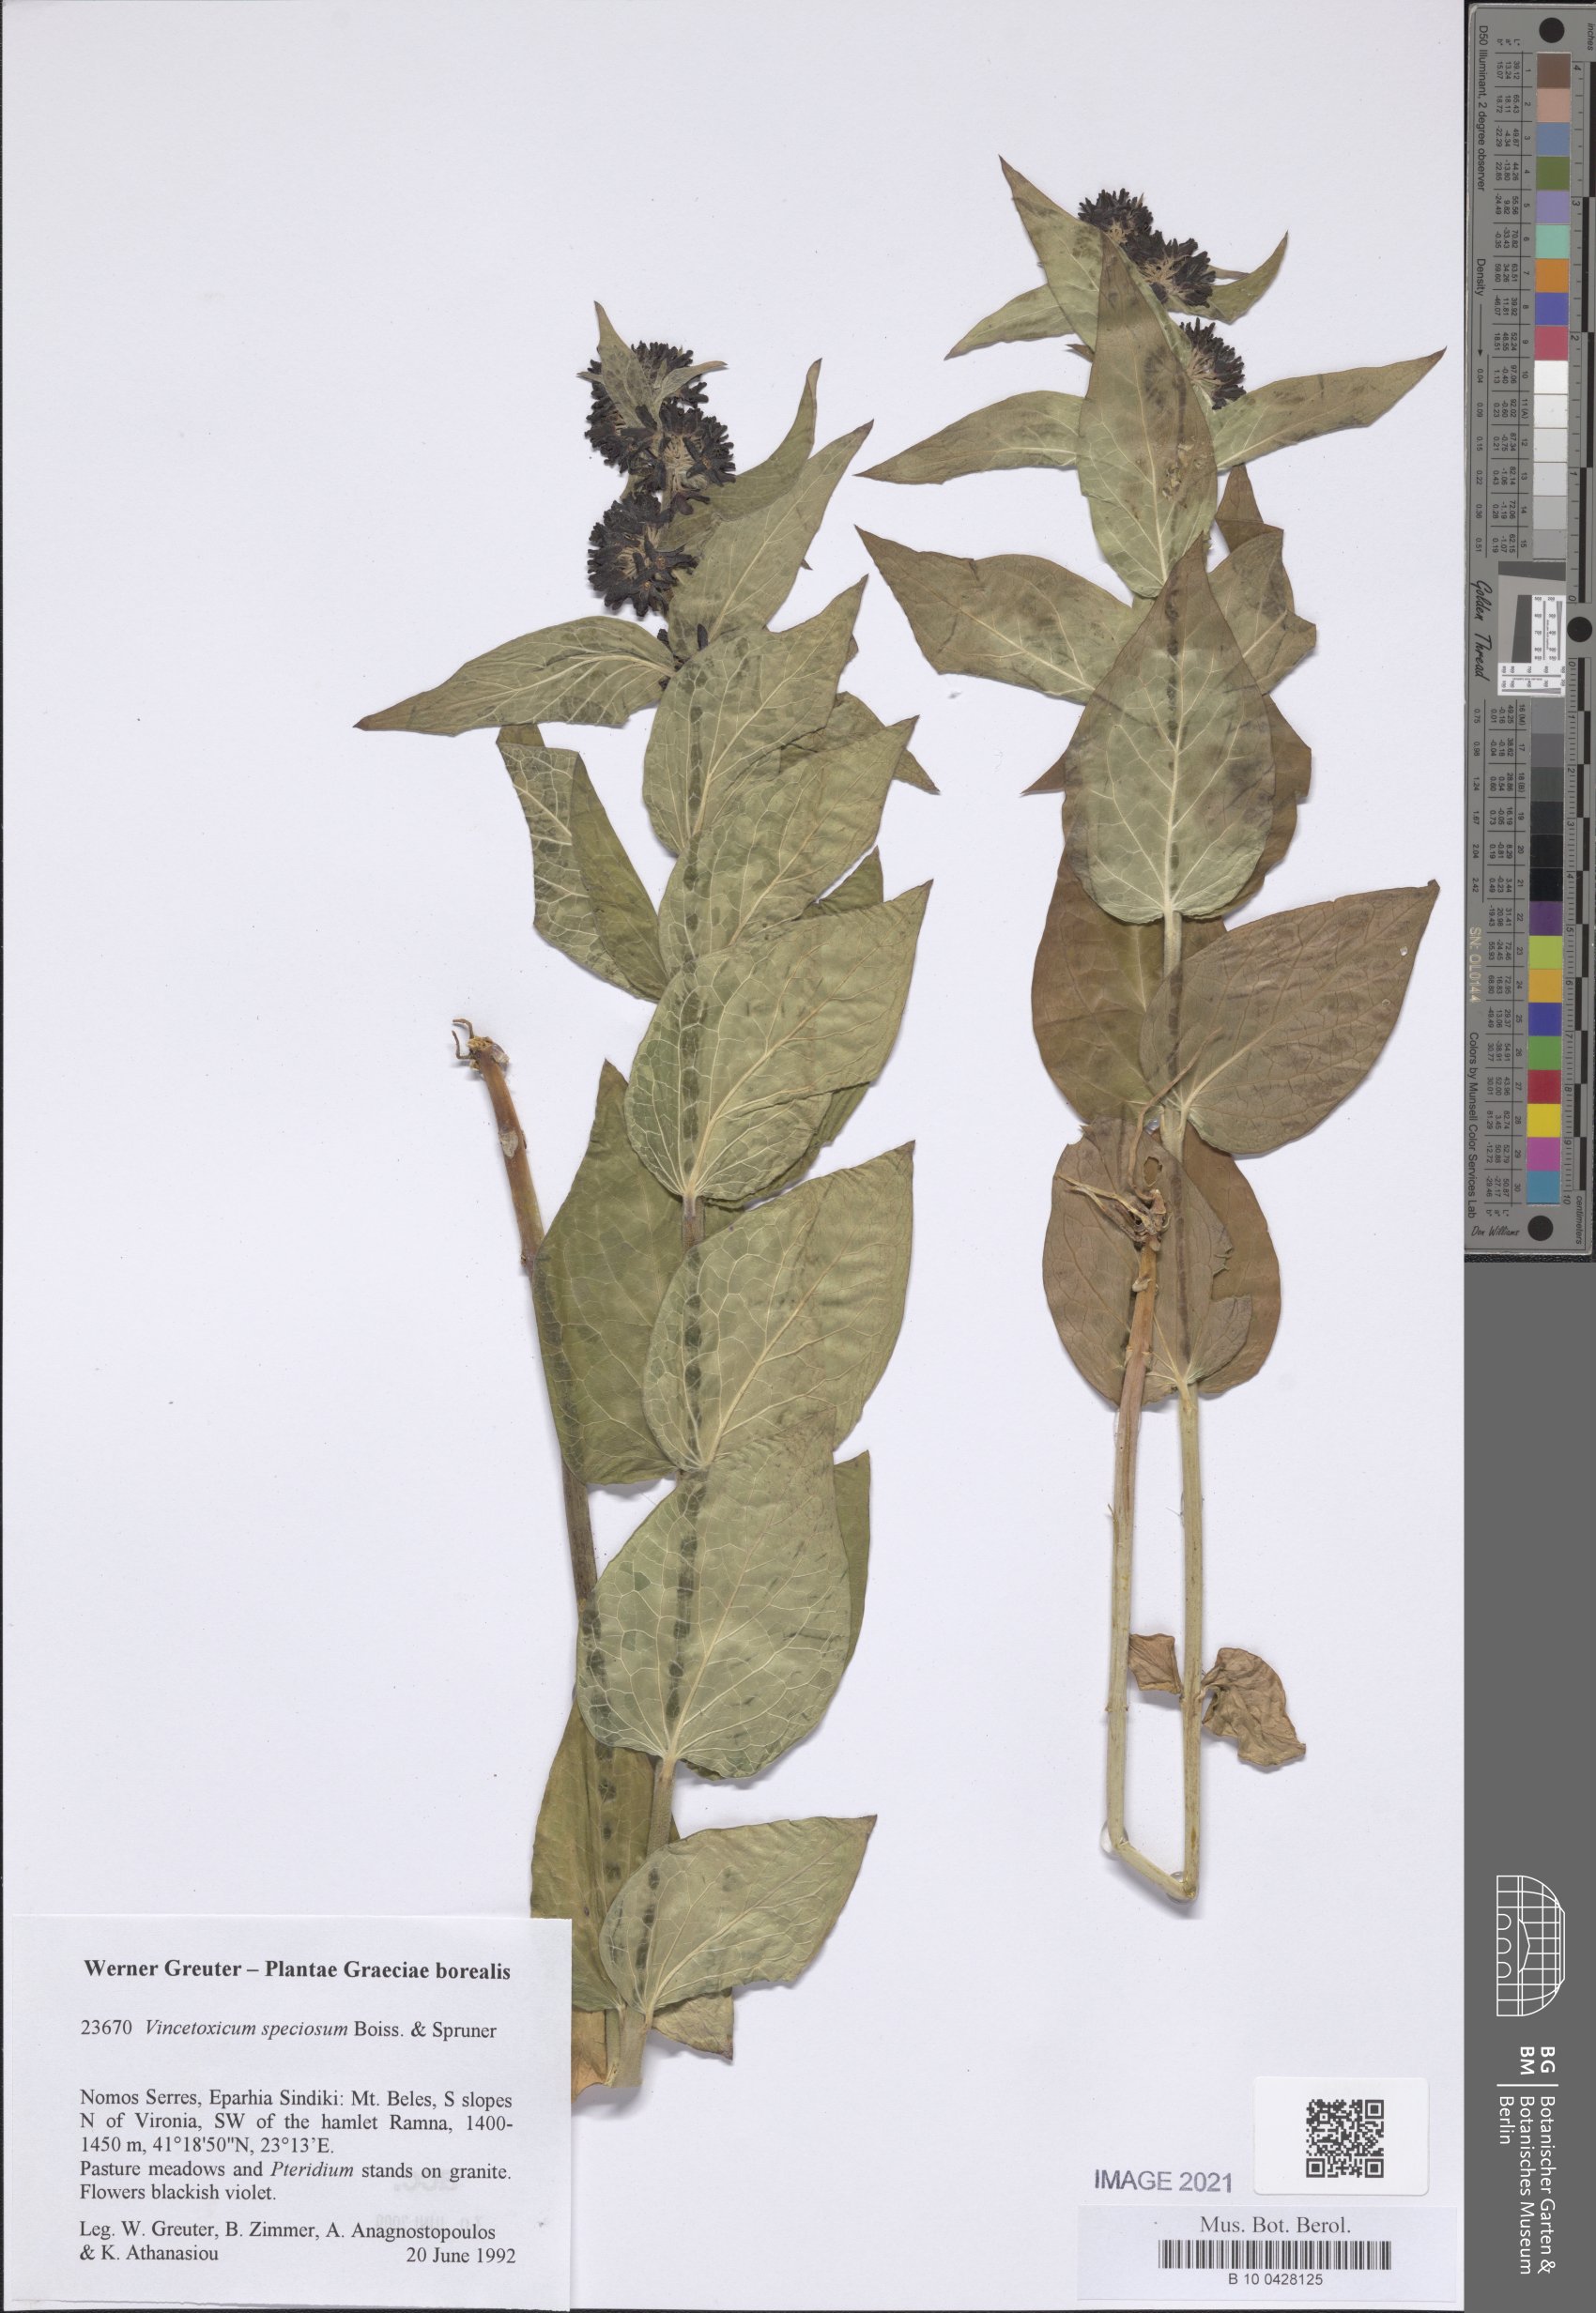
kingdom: Plantae
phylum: Tracheophyta
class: Magnoliopsida
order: Gentianales
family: Apocynaceae
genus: Vincetoxicum
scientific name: Vincetoxicum speciosum
